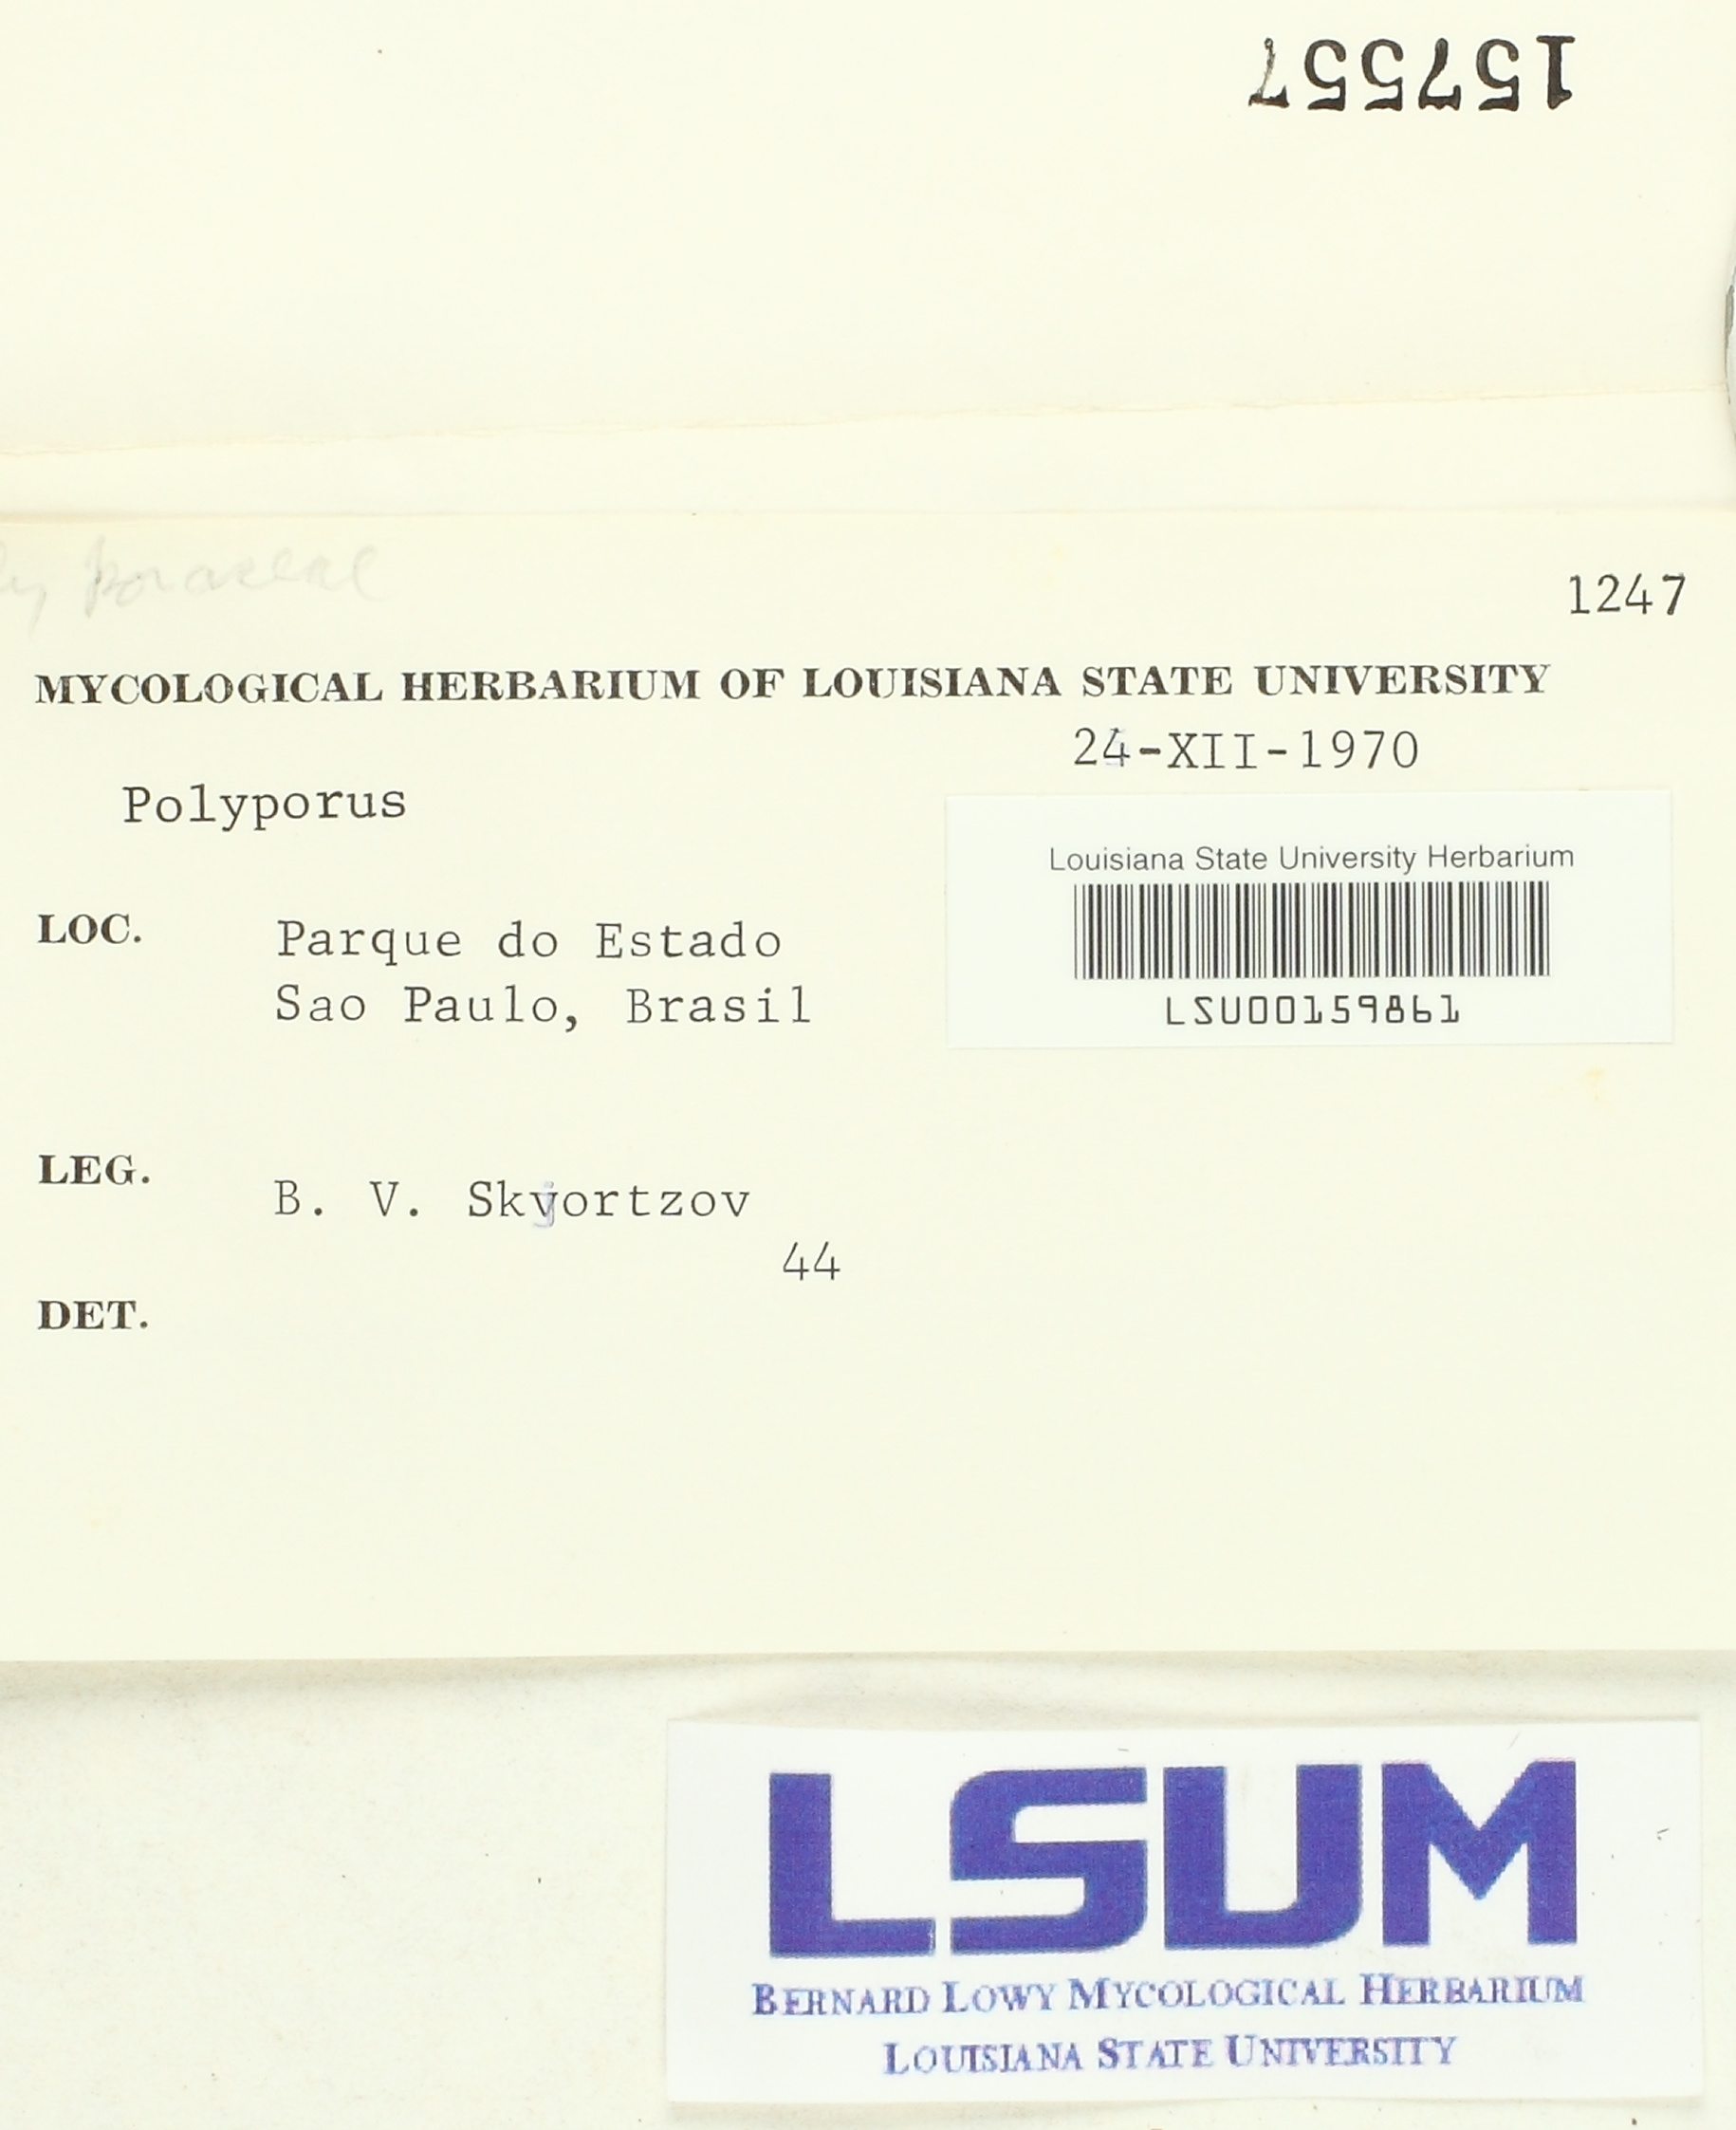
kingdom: Fungi
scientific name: Fungi
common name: Fungi
